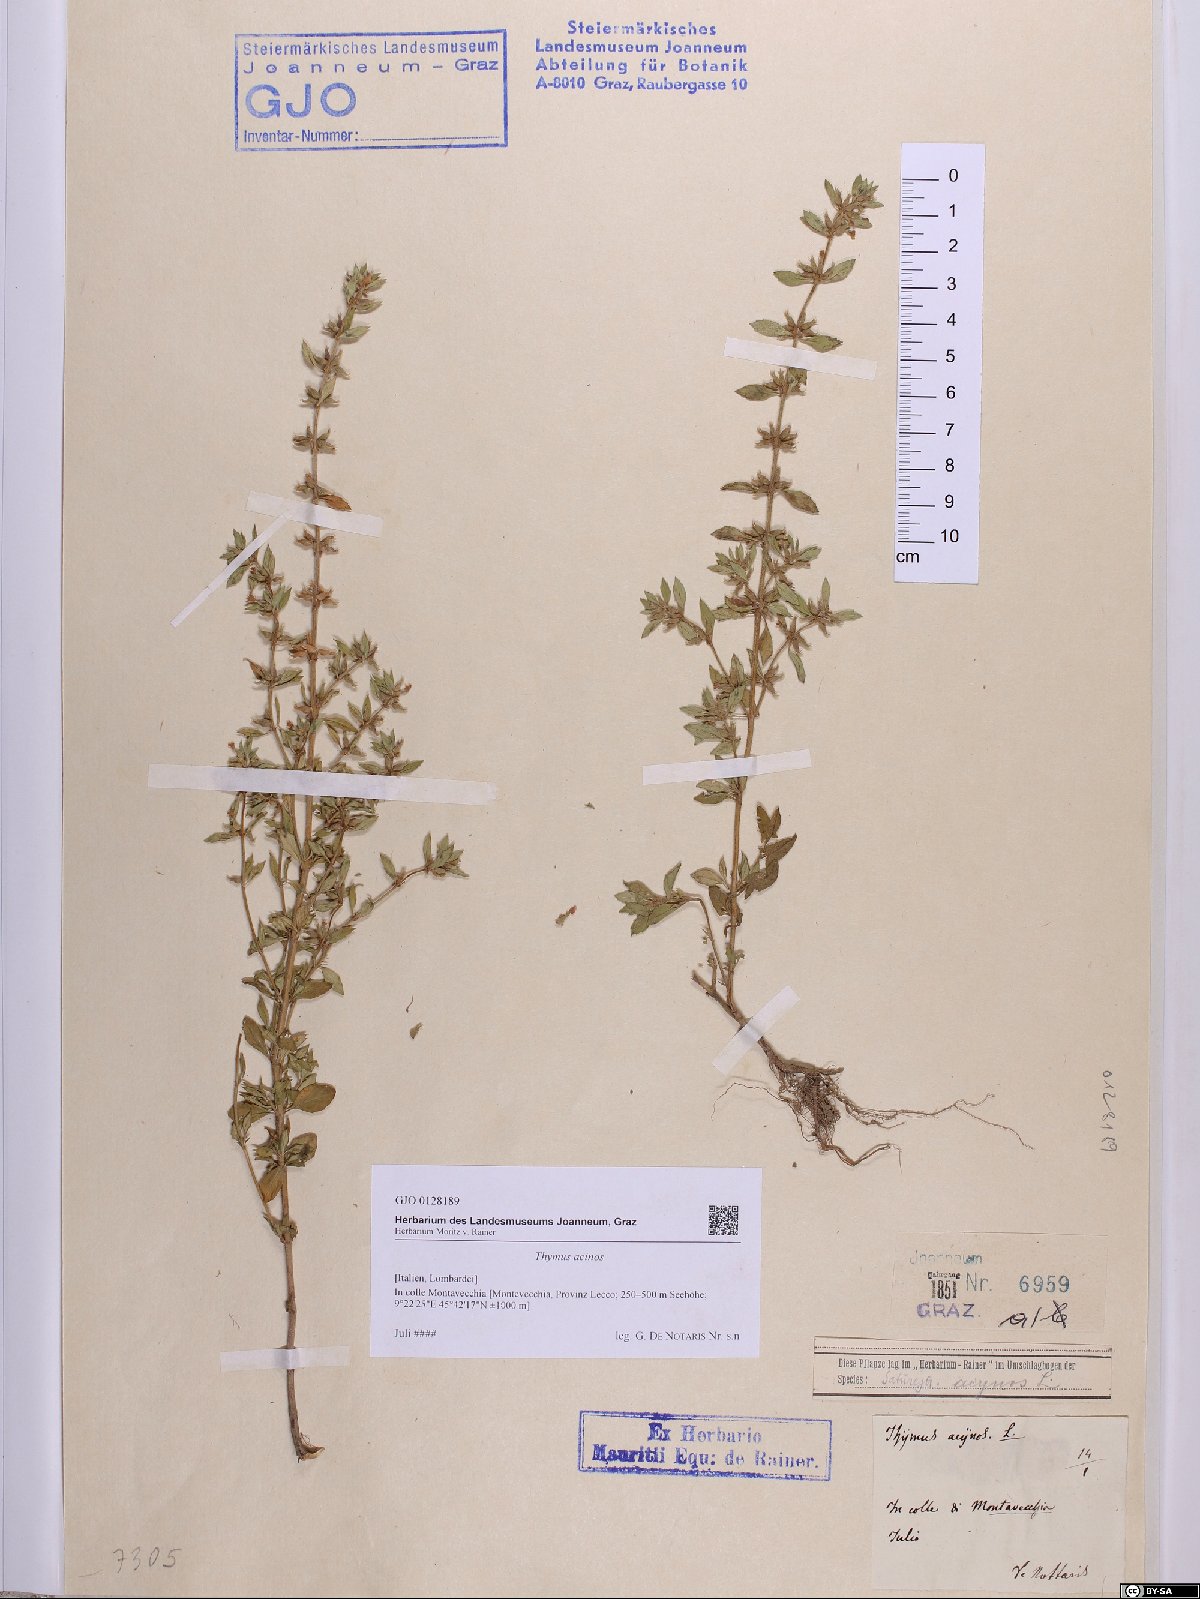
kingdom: Plantae
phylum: Tracheophyta
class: Magnoliopsida
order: Lamiales
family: Lamiaceae
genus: Clinopodium
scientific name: Clinopodium acinos
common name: Basil thyme
